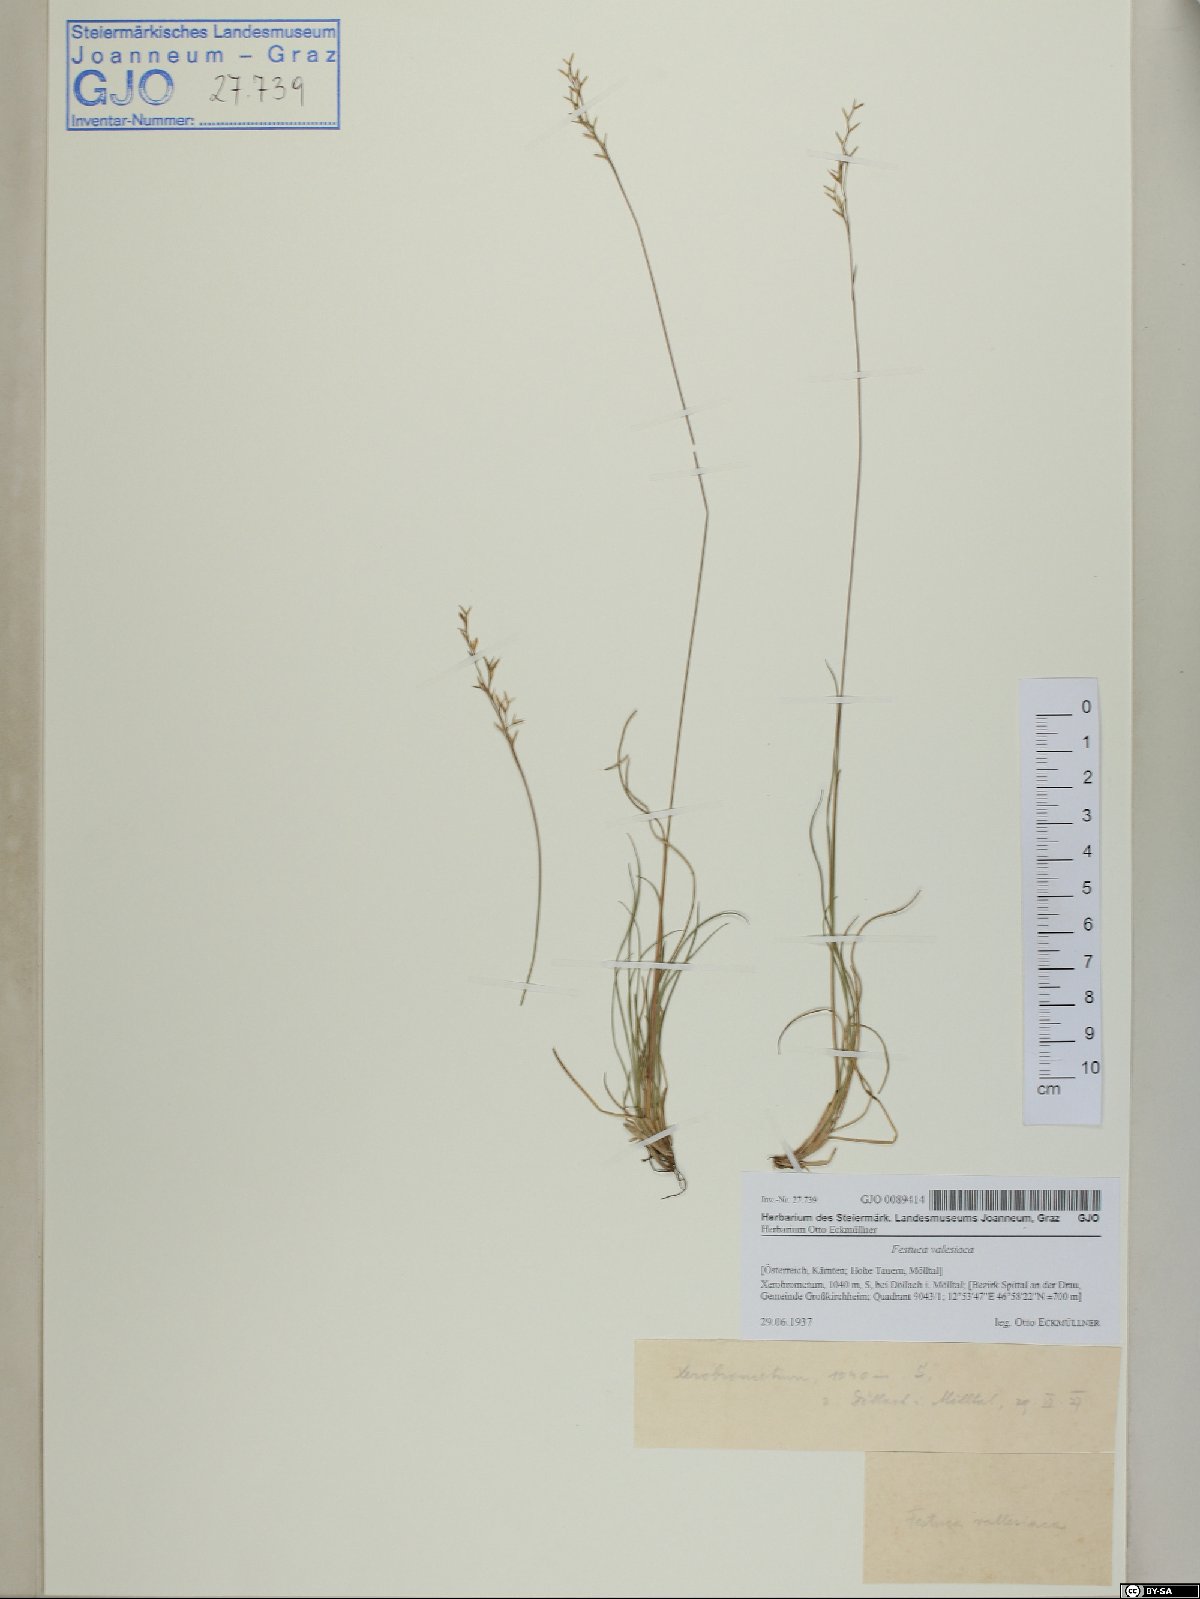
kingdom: Plantae
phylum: Tracheophyta
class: Liliopsida
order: Poales
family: Poaceae
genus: Festuca
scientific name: Festuca valesiaca
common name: Volga fescue
